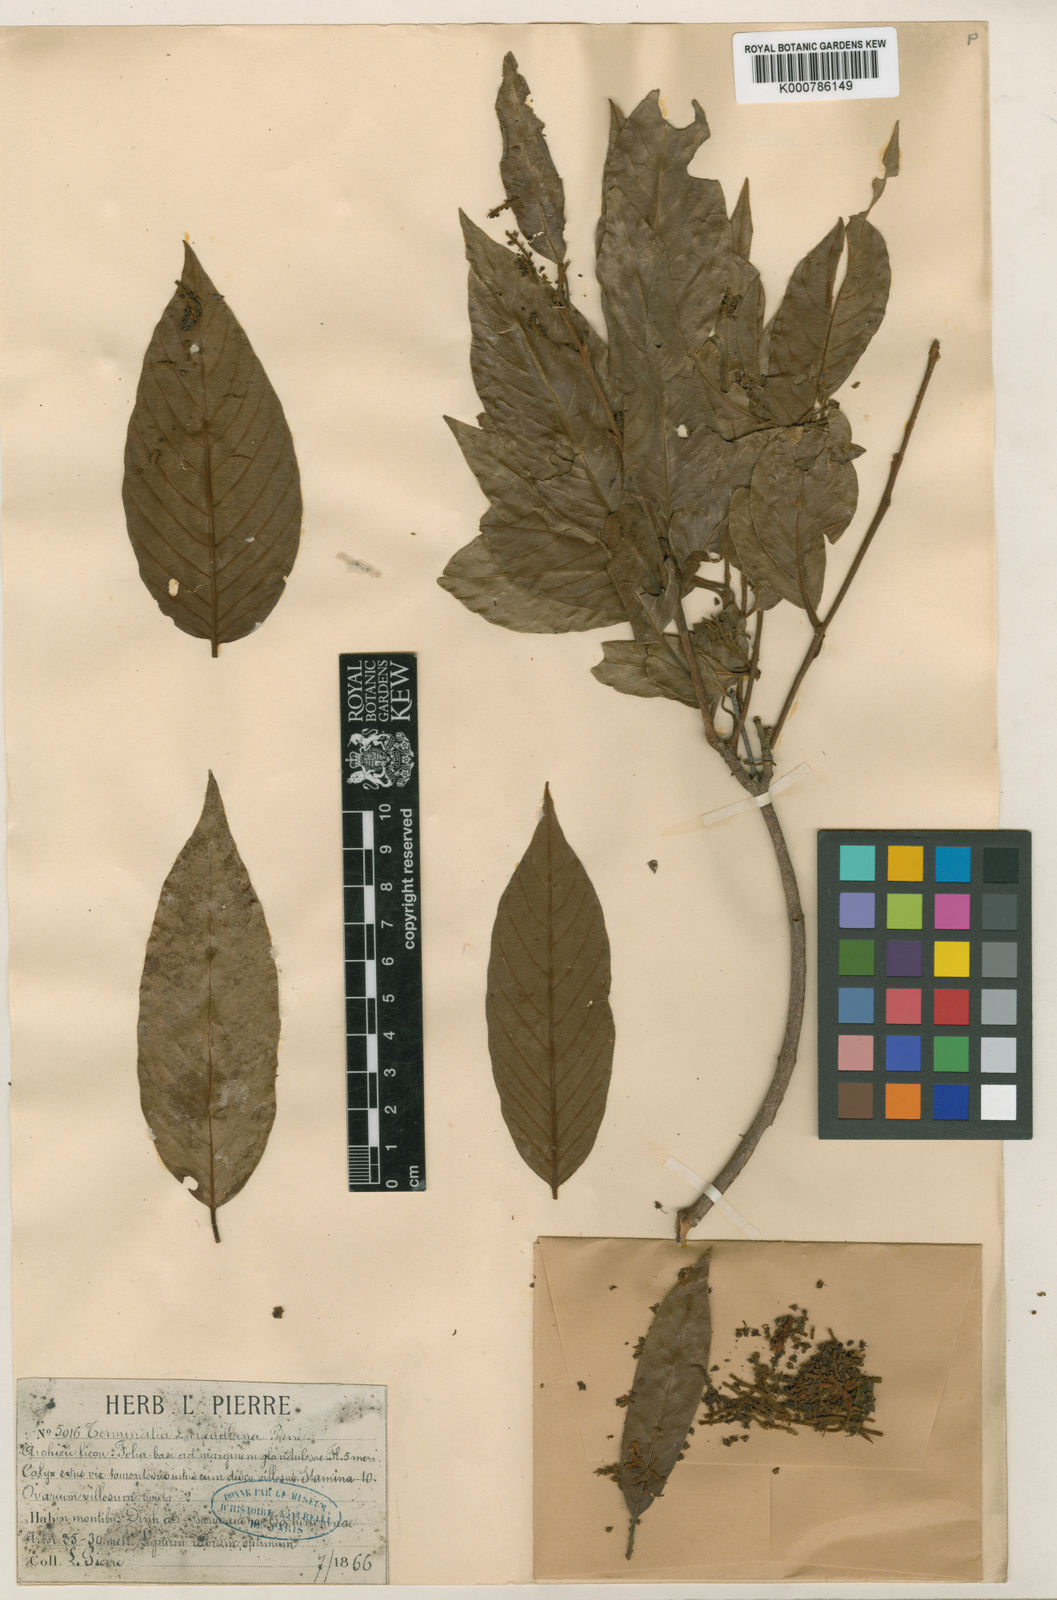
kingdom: Plantae
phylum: Tracheophyta
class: Magnoliopsida
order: Myrtales
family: Combretaceae
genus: Terminalia
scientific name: Terminalia
